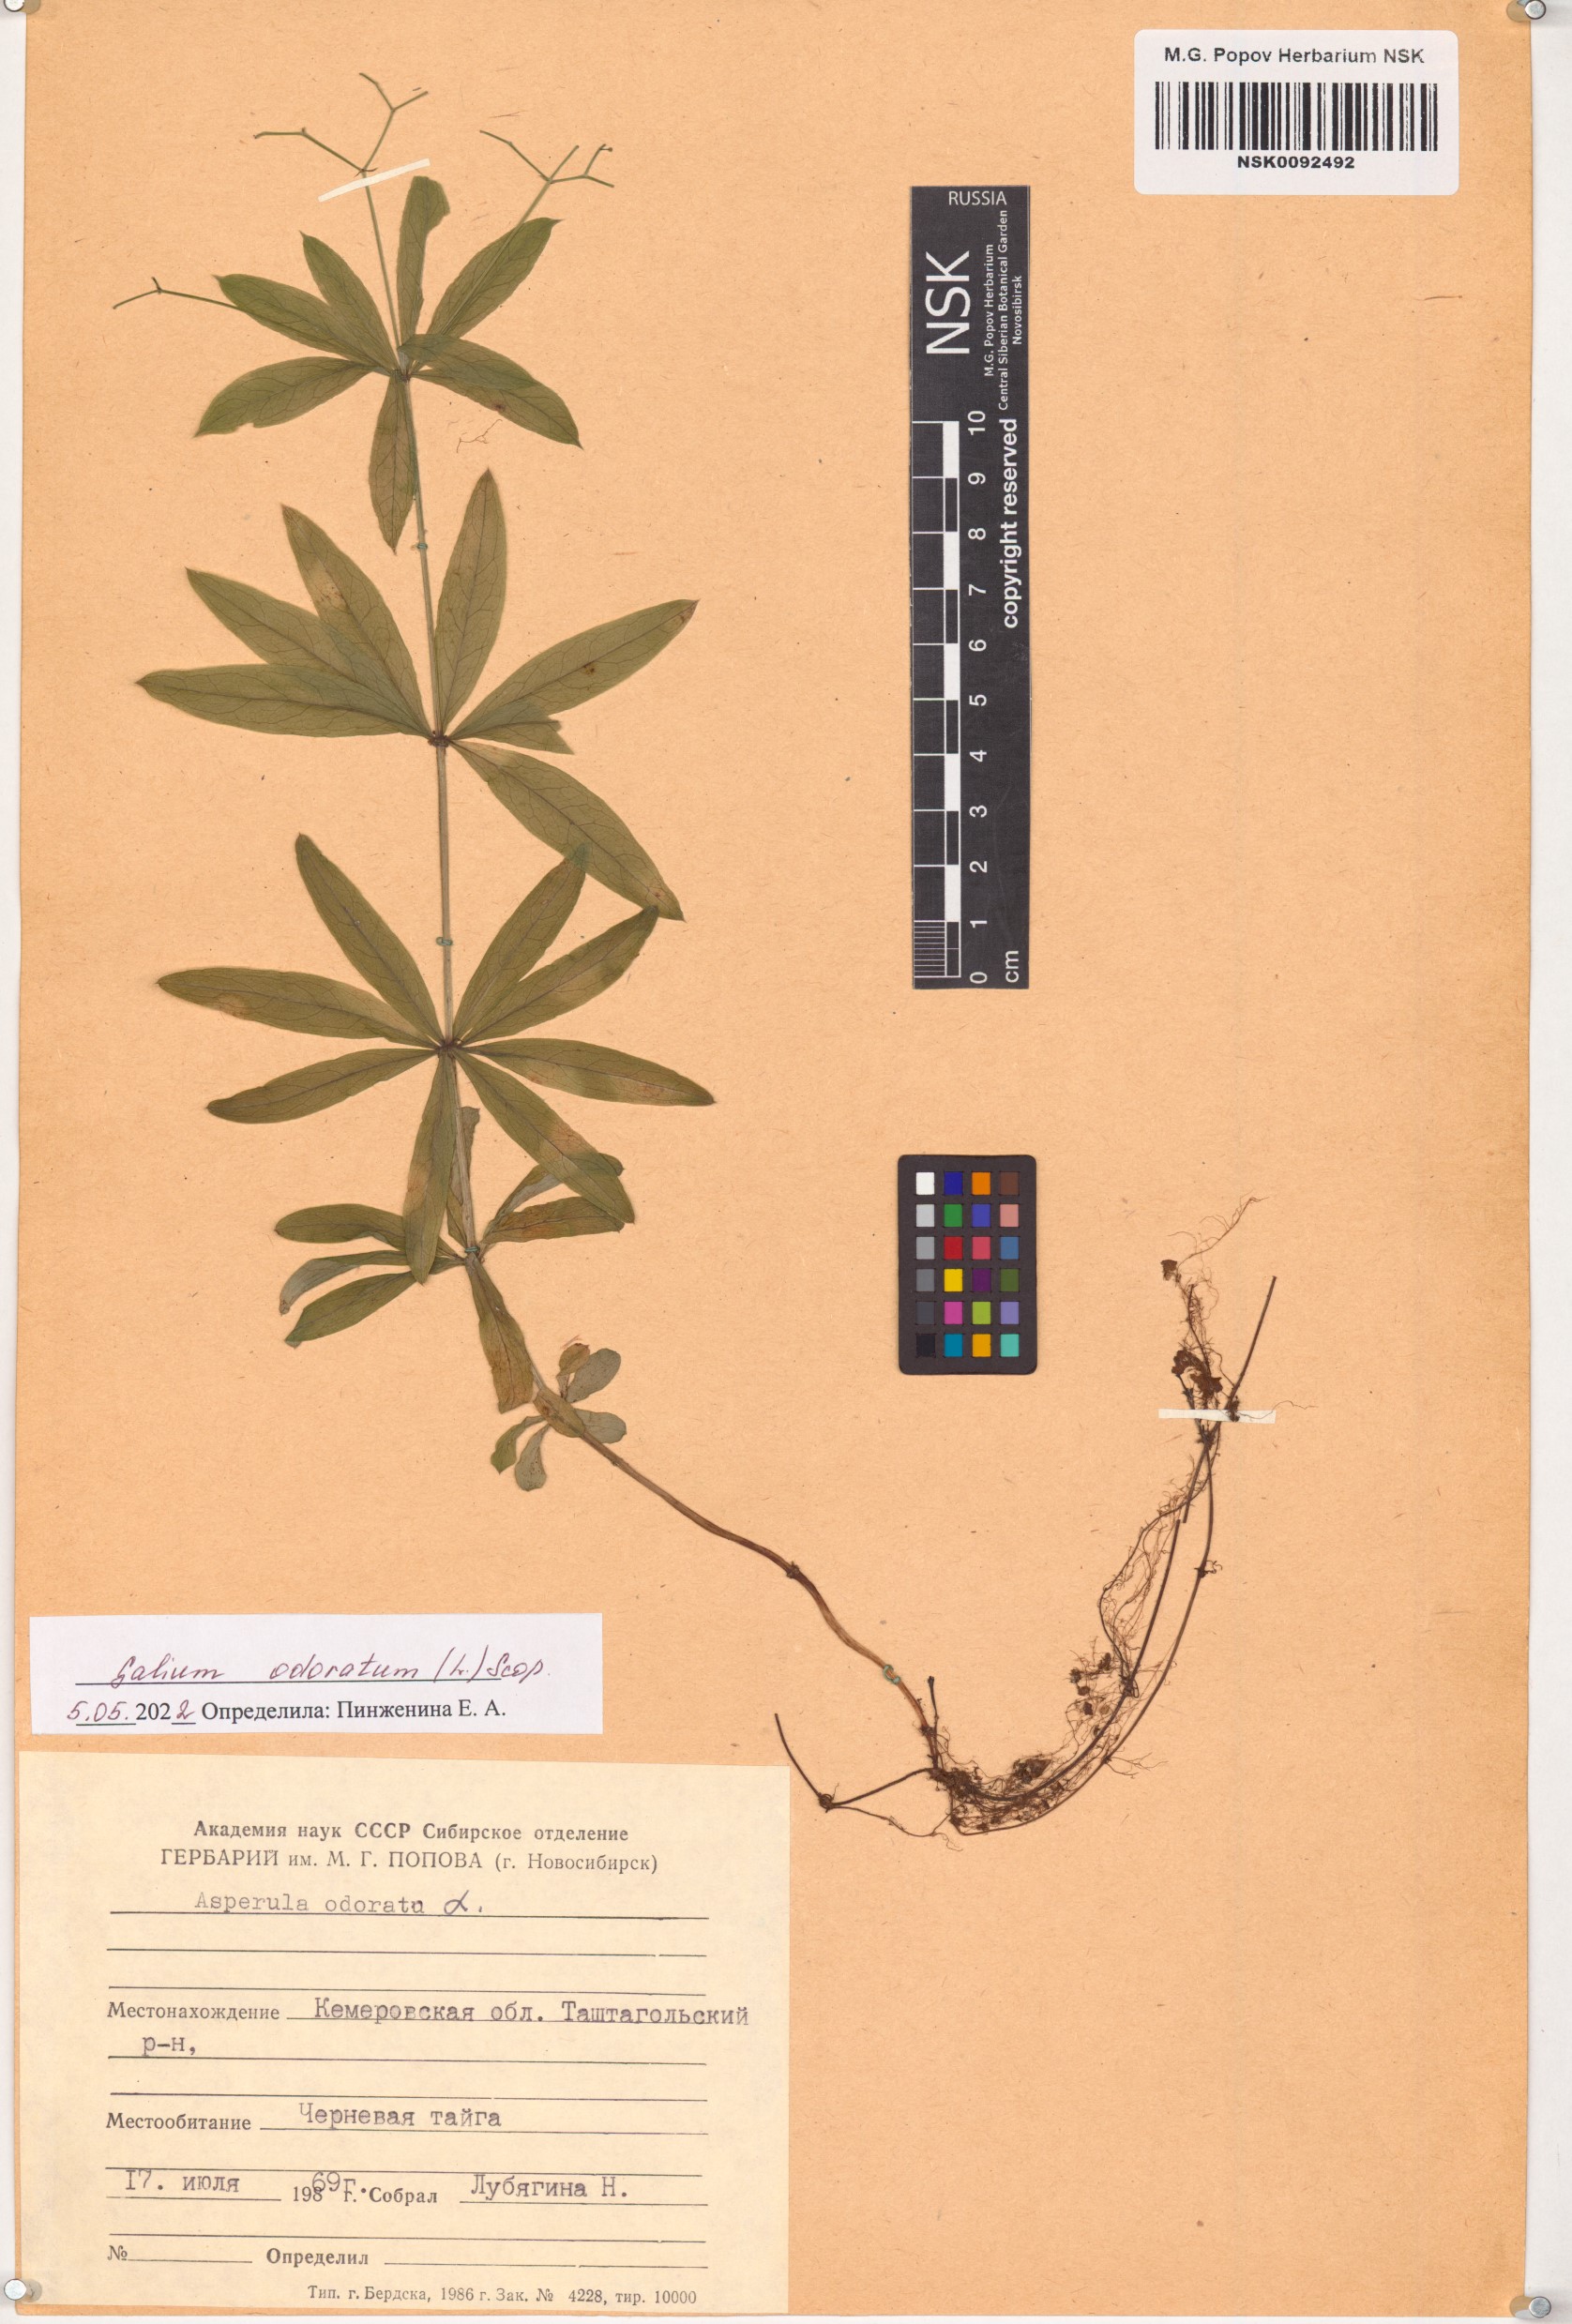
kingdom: Plantae
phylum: Tracheophyta
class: Magnoliopsida
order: Gentianales
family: Rubiaceae
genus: Galium
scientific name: Galium odoratum
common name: Sweet woodruff
